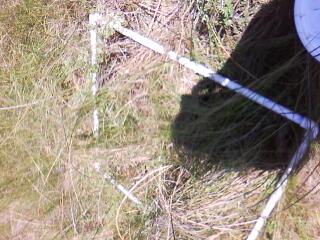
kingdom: Plantae
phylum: Tracheophyta
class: Magnoliopsida
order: Lamiales
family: Lamiaceae
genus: Pycnanthemum
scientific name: Pycnanthemum virginianum
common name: Virginia mountain-mint
